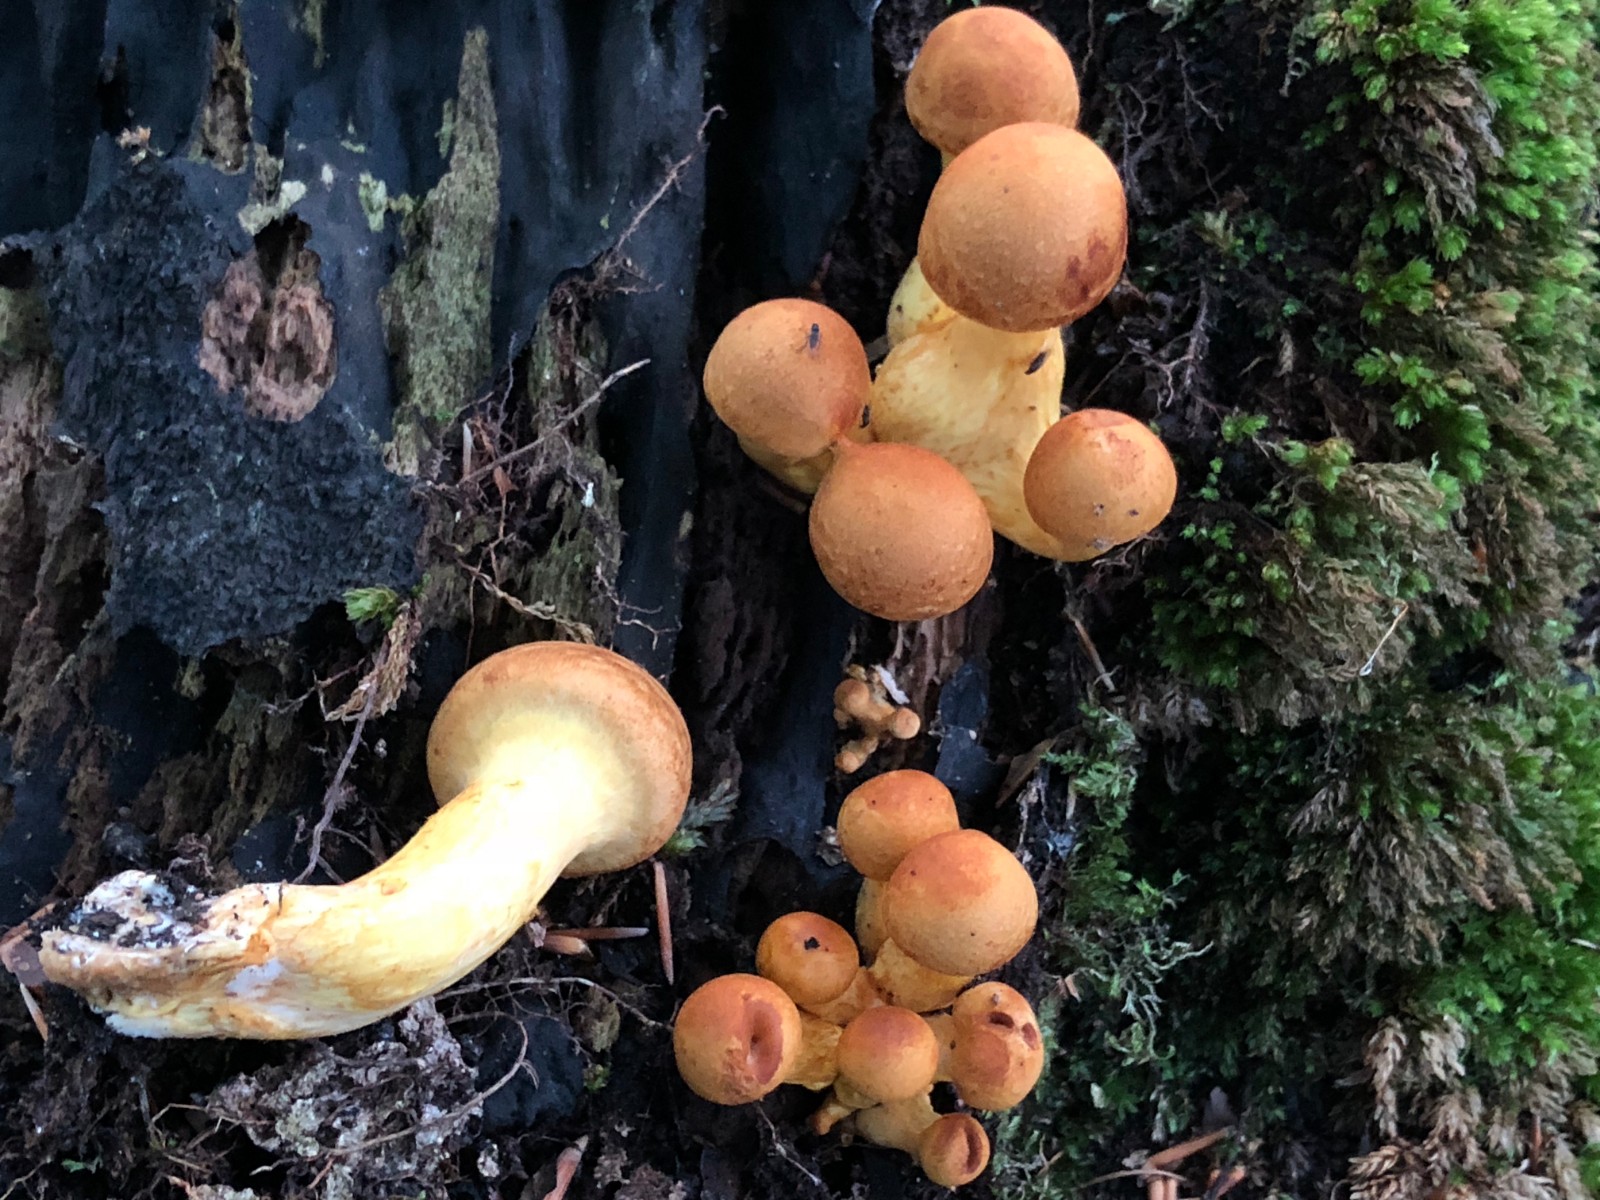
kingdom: Fungi
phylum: Basidiomycota
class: Agaricomycetes
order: Agaricales
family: Hymenogastraceae
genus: Gymnopilus
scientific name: Gymnopilus spectabilis
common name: fibret flammehat
